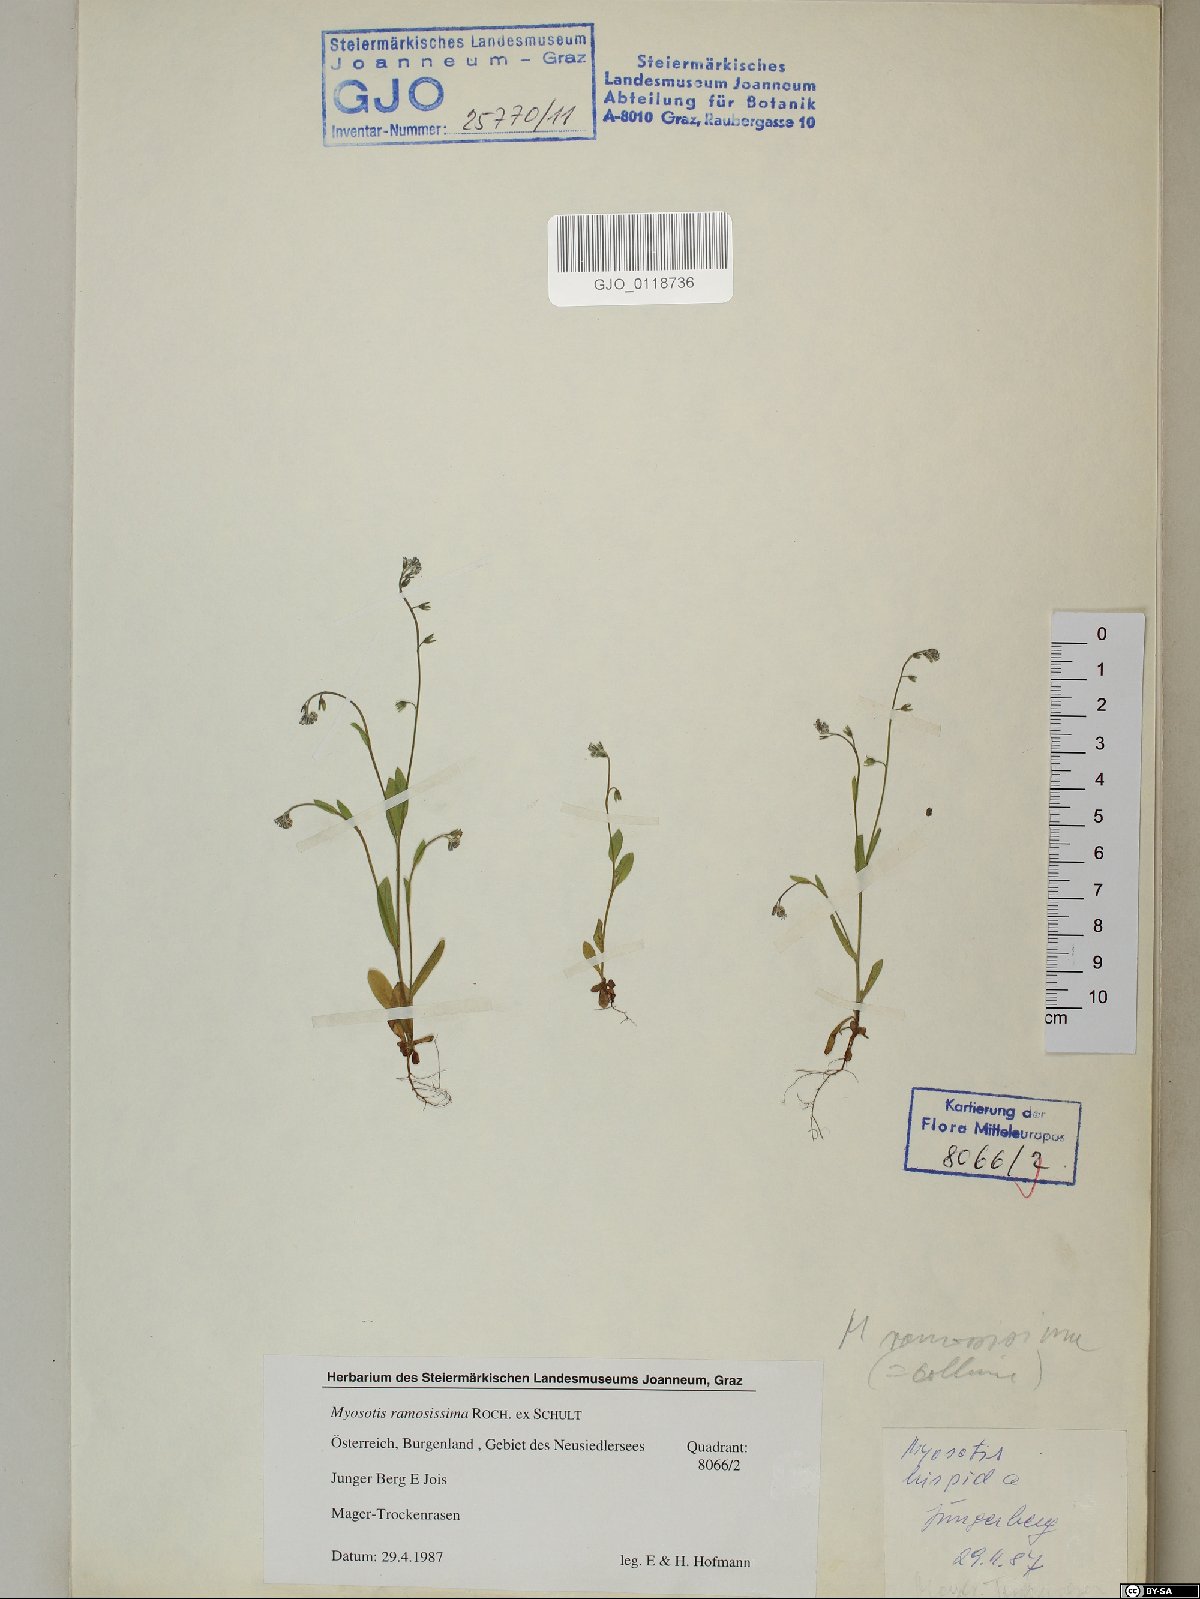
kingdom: Plantae
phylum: Tracheophyta
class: Magnoliopsida
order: Boraginales
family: Boraginaceae
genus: Myosotis
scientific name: Myosotis ramosissima
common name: Early forget-me-not
